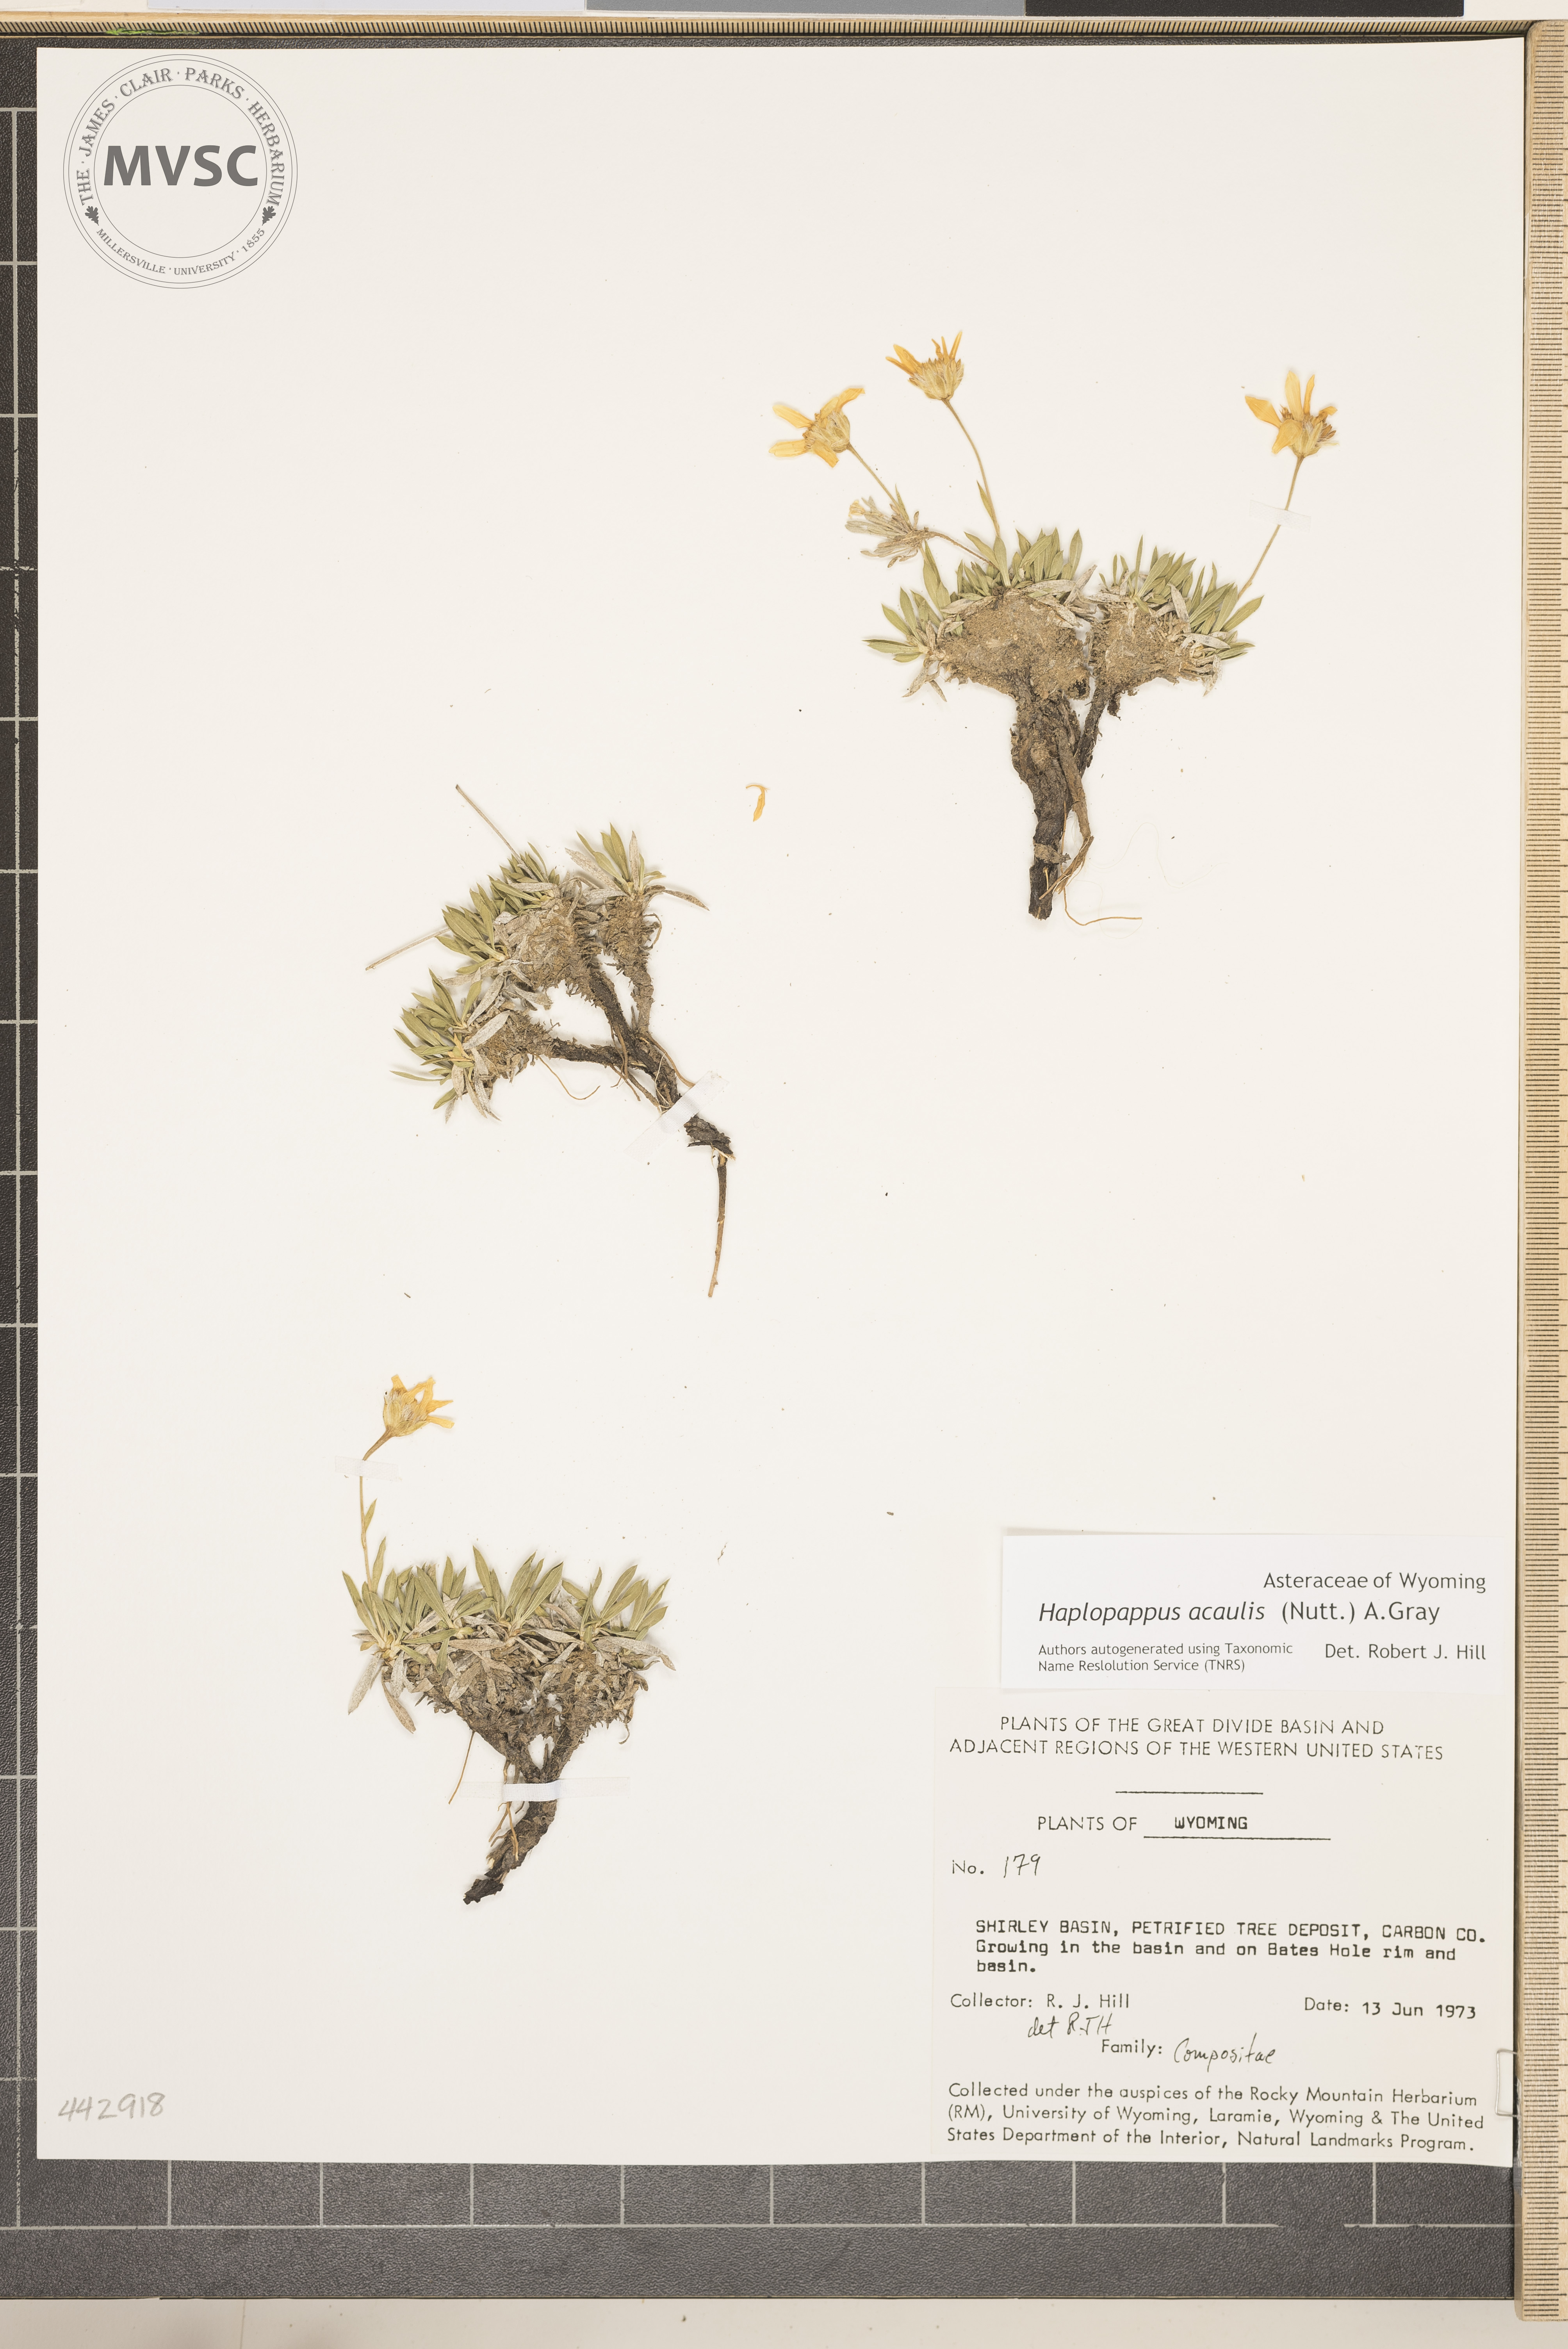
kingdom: Plantae
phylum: Tracheophyta
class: Magnoliopsida
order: Asterales
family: Asteraceae
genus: Stenotus
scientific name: Stenotus acaulis
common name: Stemless goldenweed
